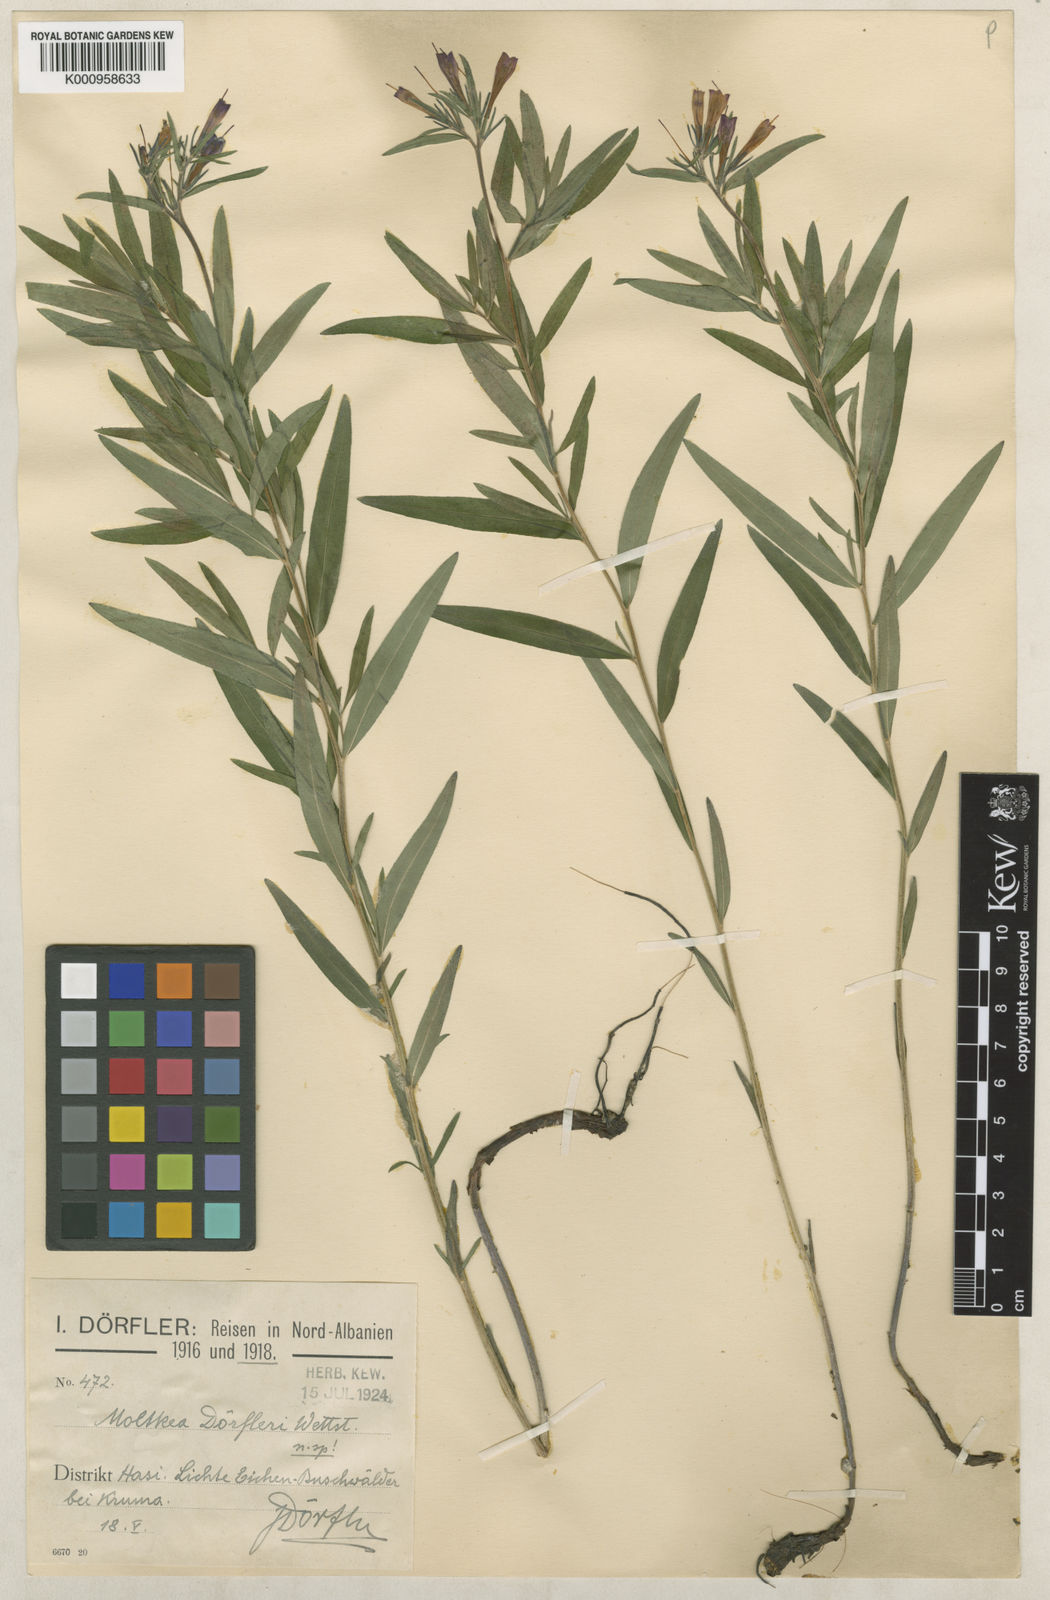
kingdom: Plantae
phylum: Tracheophyta
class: Magnoliopsida
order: Boraginales
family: Boraginaceae
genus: Paramoltkia
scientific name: Paramoltkia doerfleri
